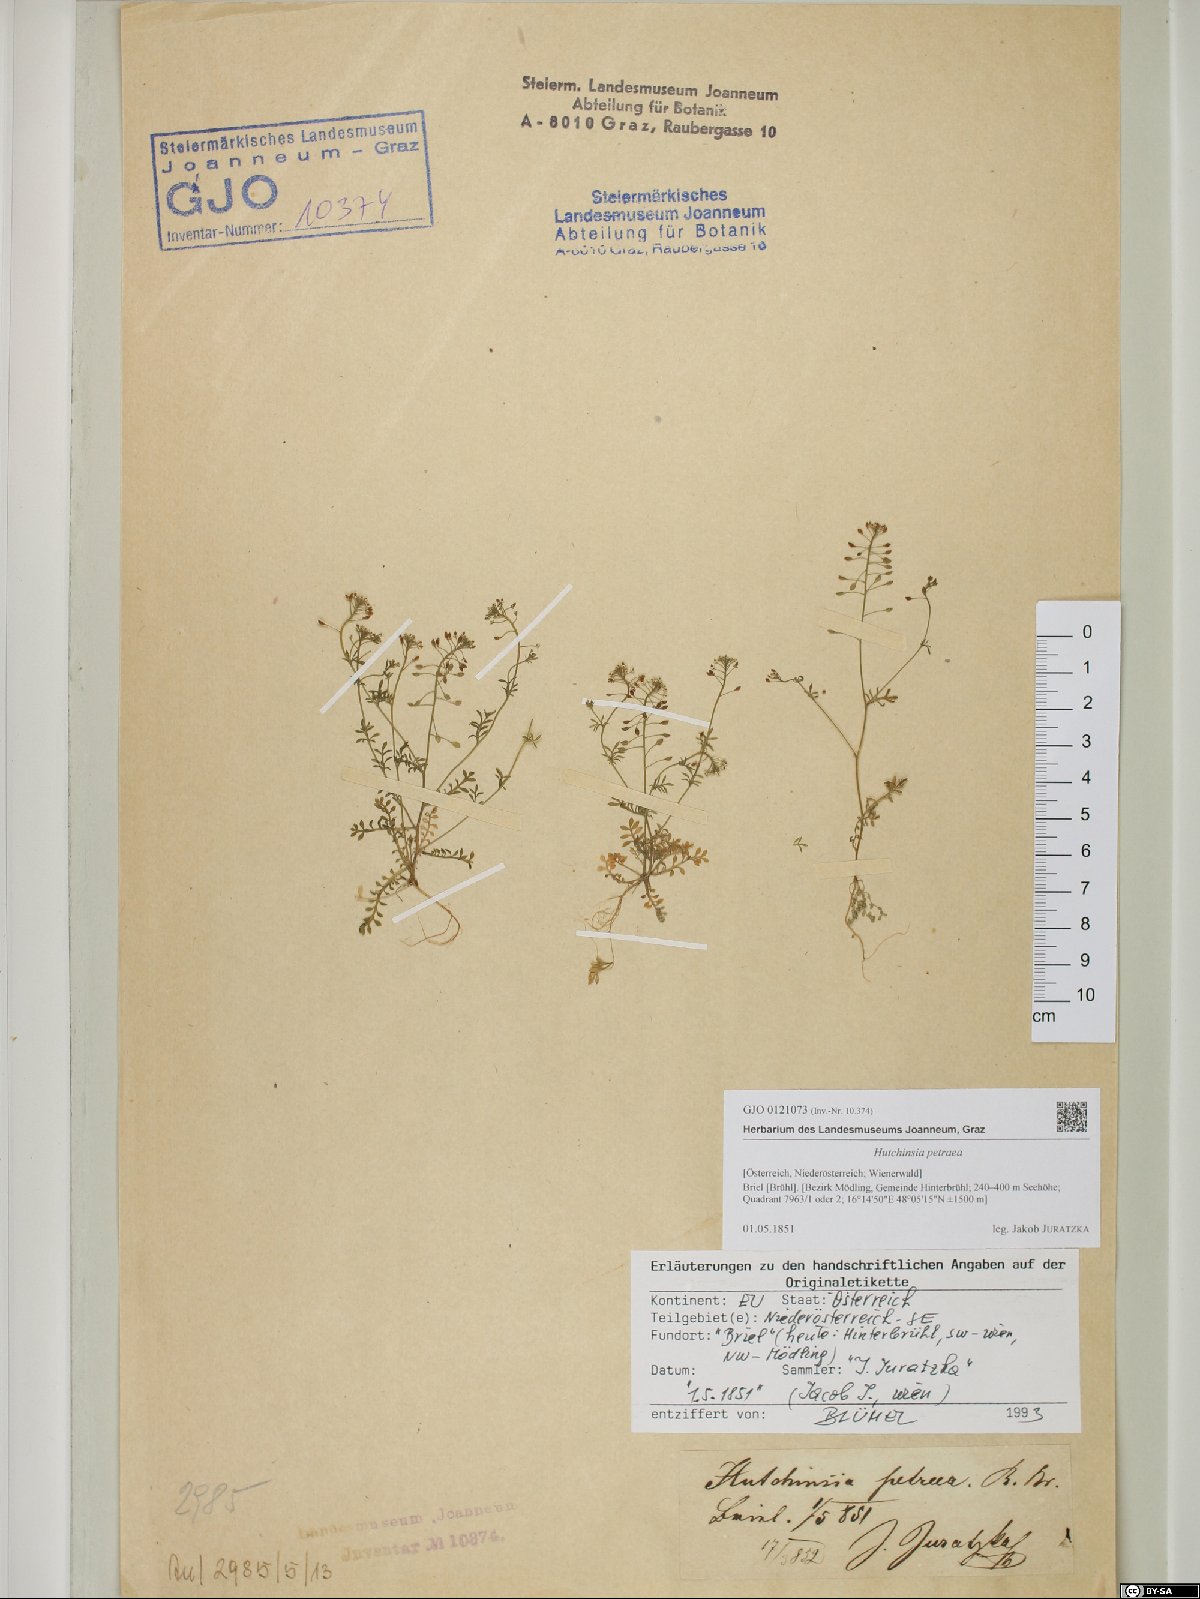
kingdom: Plantae
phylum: Tracheophyta
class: Magnoliopsida
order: Brassicales
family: Brassicaceae
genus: Hornungia
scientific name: Hornungia petraea
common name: Hutchinsia
